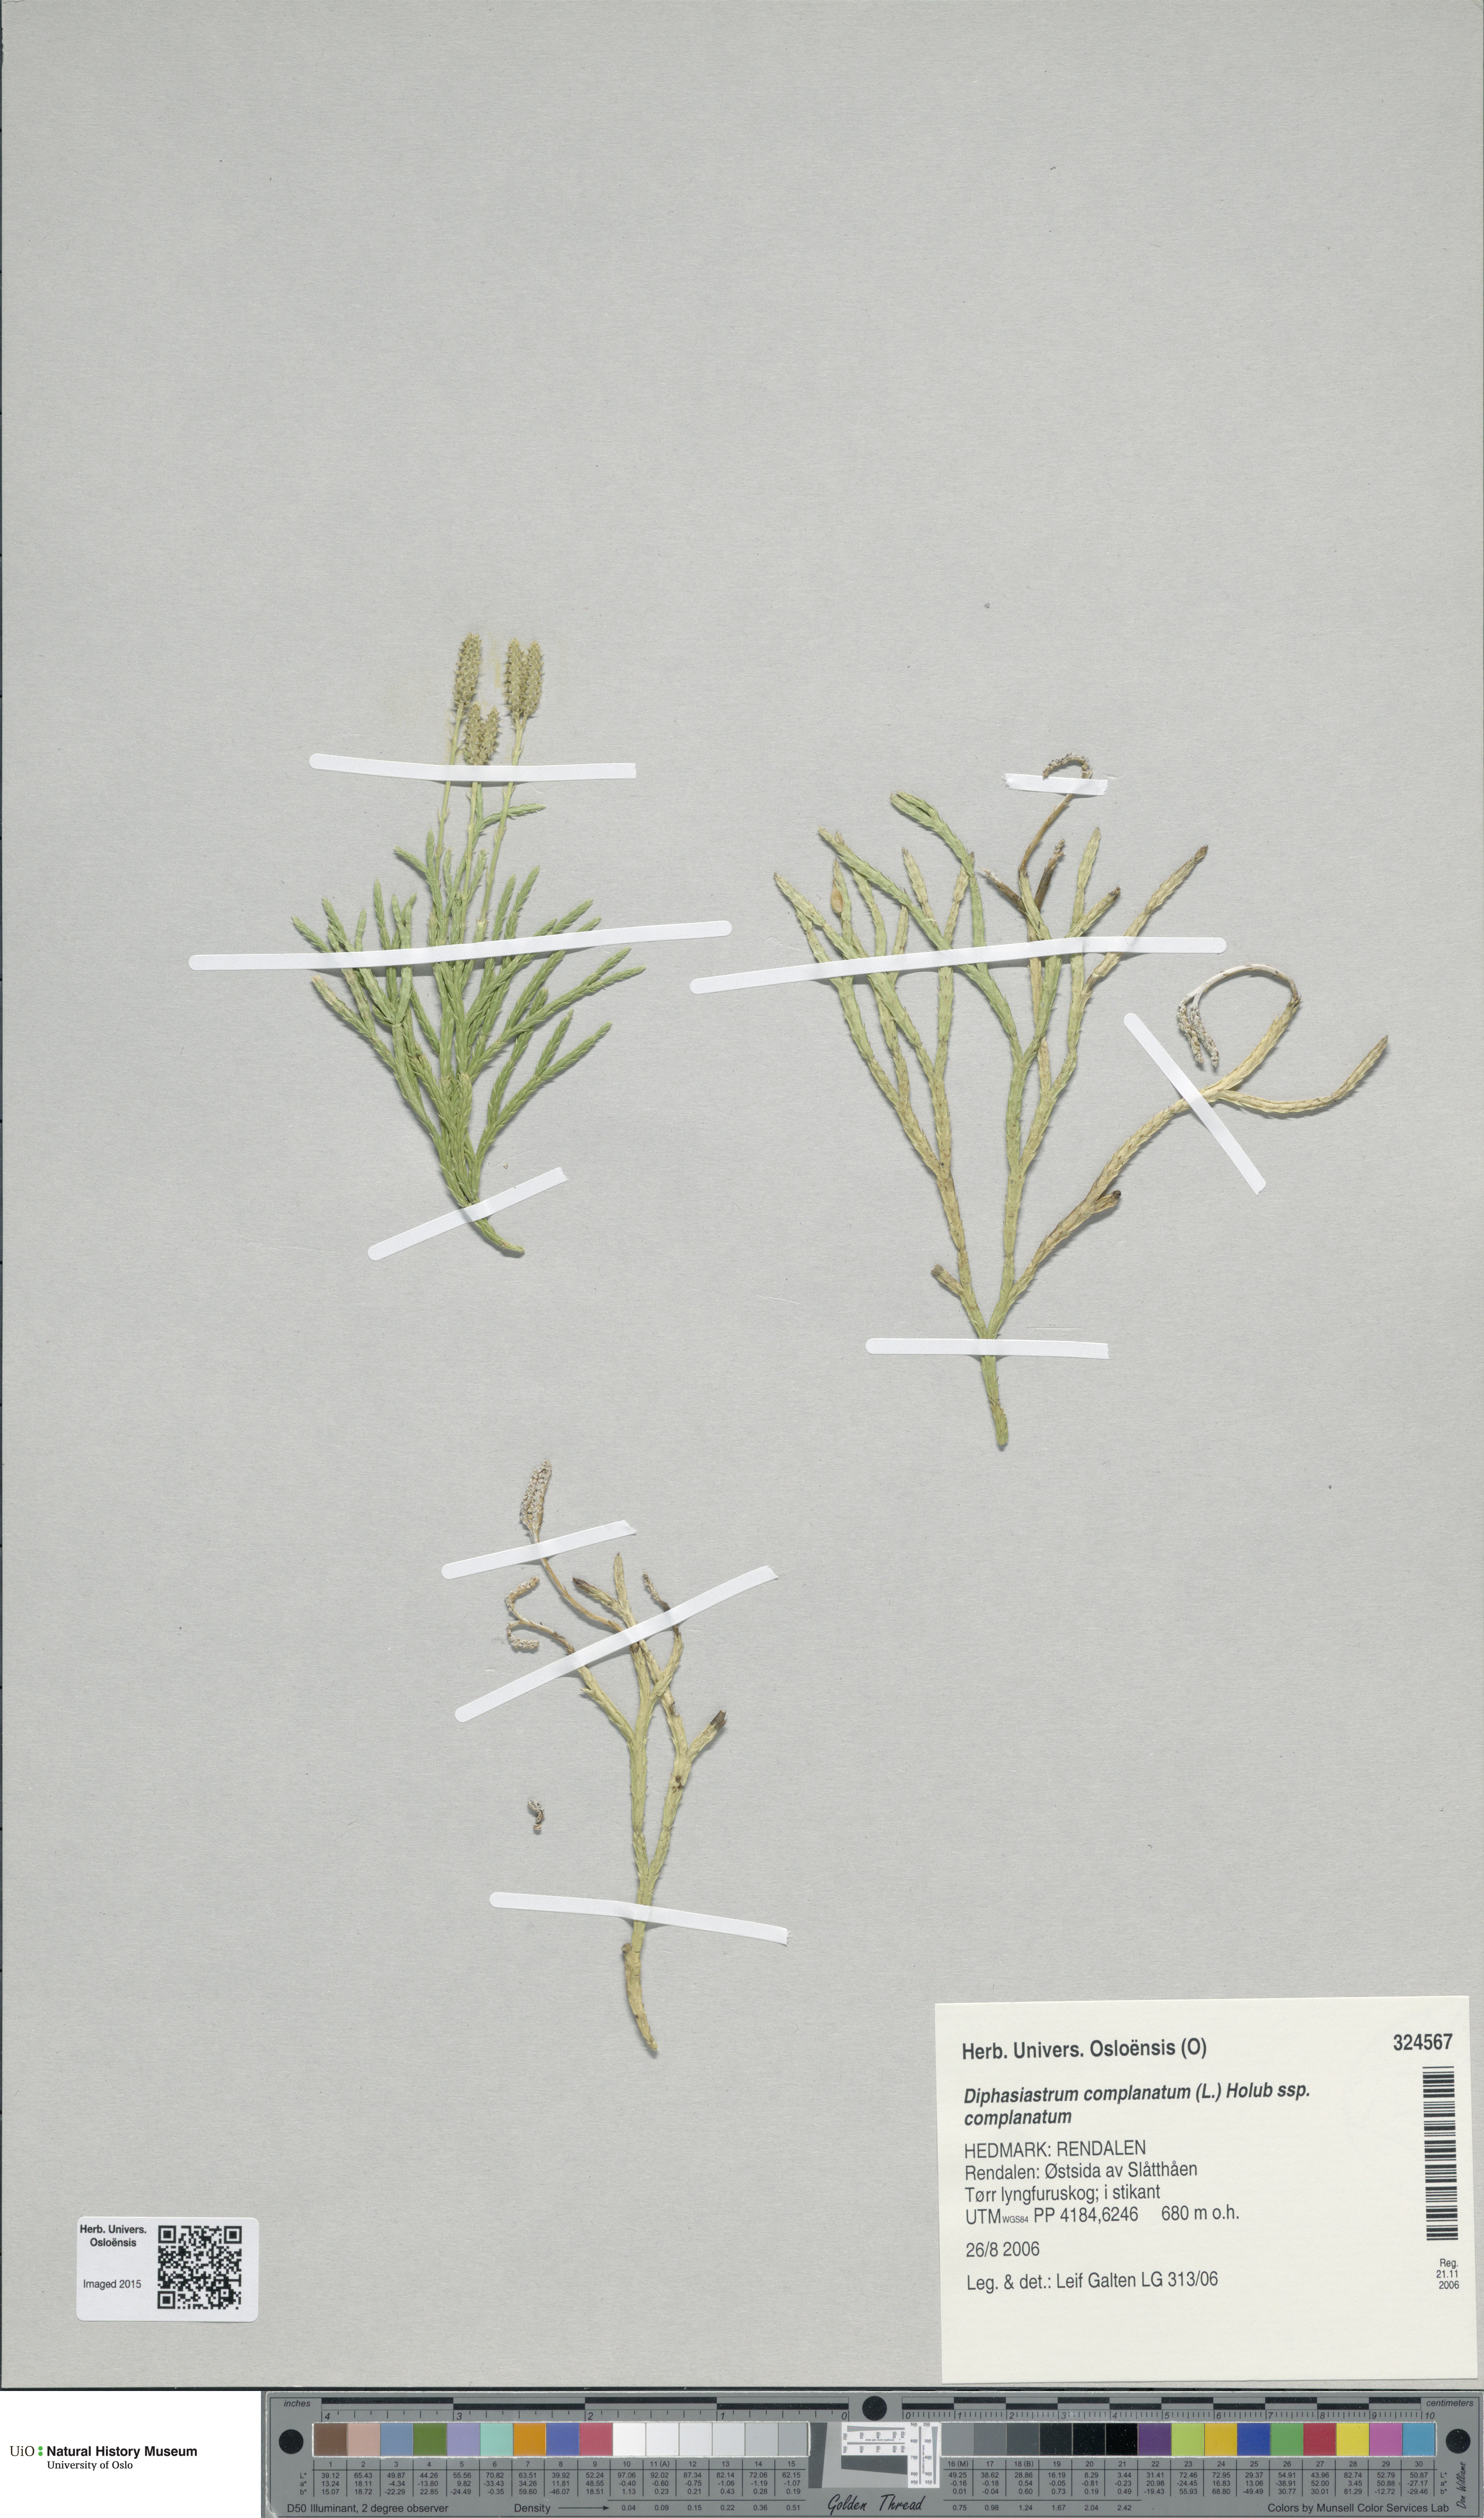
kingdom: Plantae
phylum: Tracheophyta
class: Lycopodiopsida
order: Lycopodiales
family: Lycopodiaceae
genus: Diphasiastrum
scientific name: Diphasiastrum complanatum
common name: Northern running-pine
